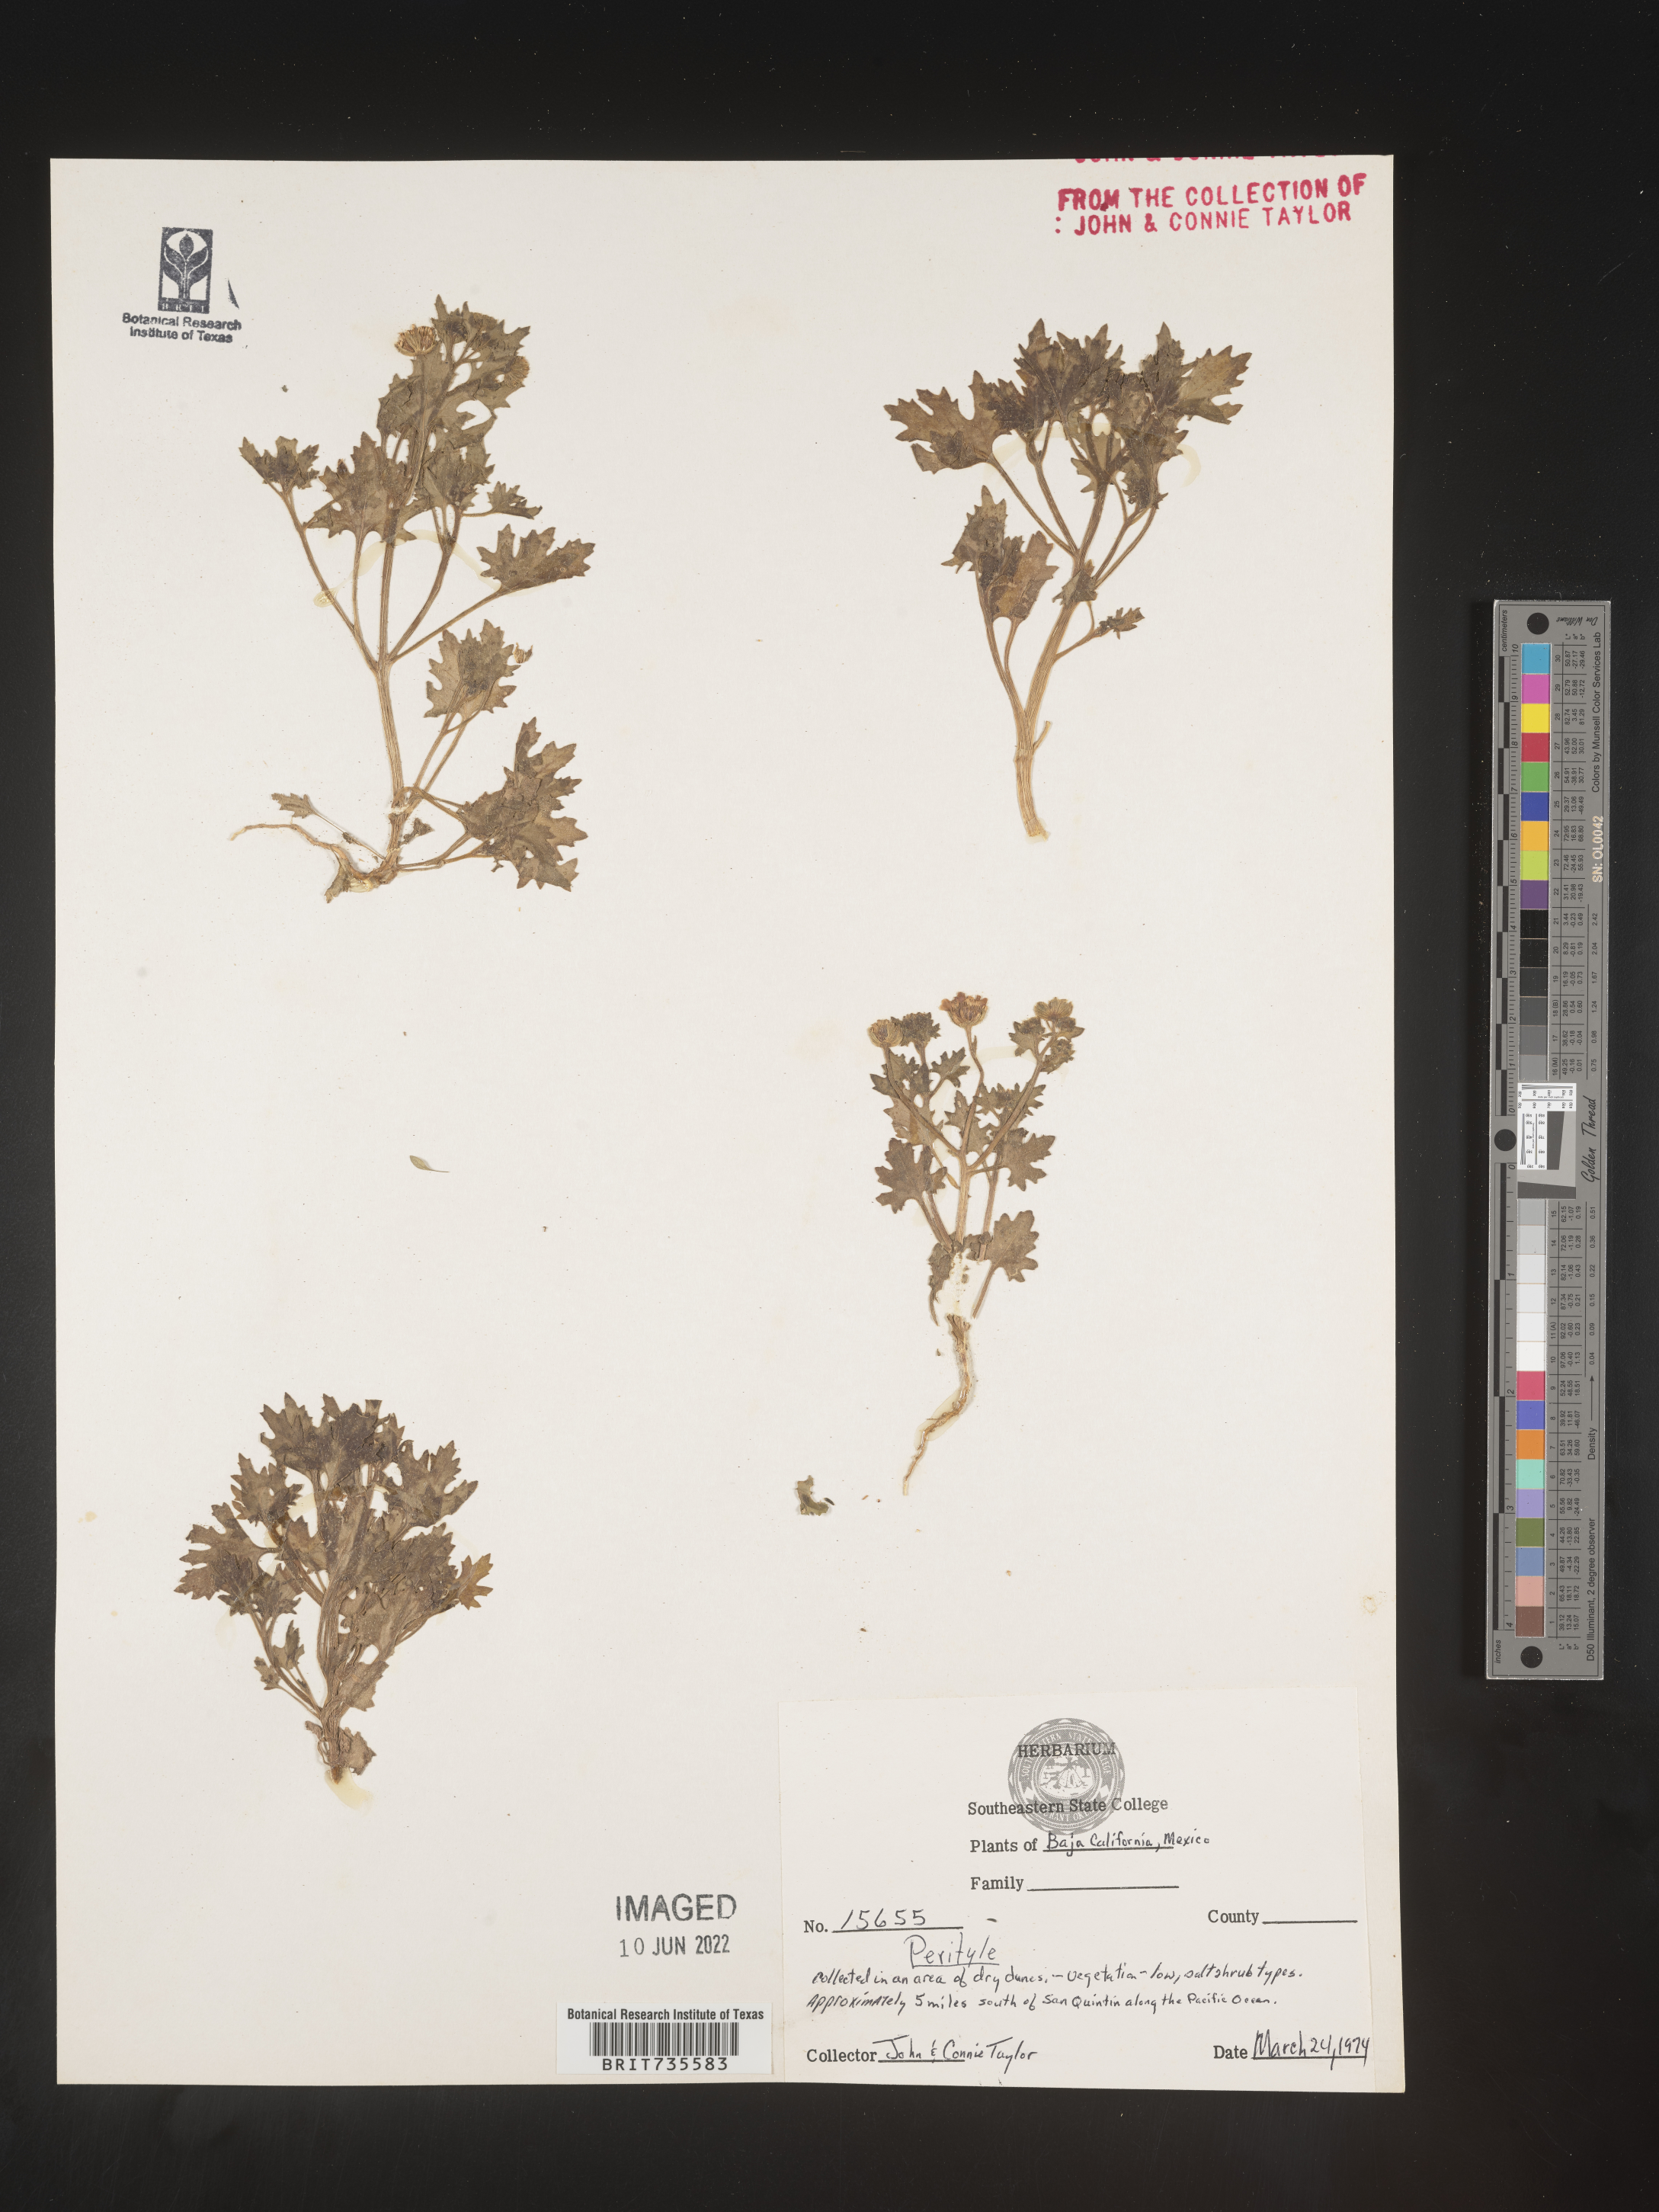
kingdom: Plantae
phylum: Tracheophyta
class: Magnoliopsida
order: Asterales
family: Asteraceae
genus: Perityle
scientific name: Perityle
